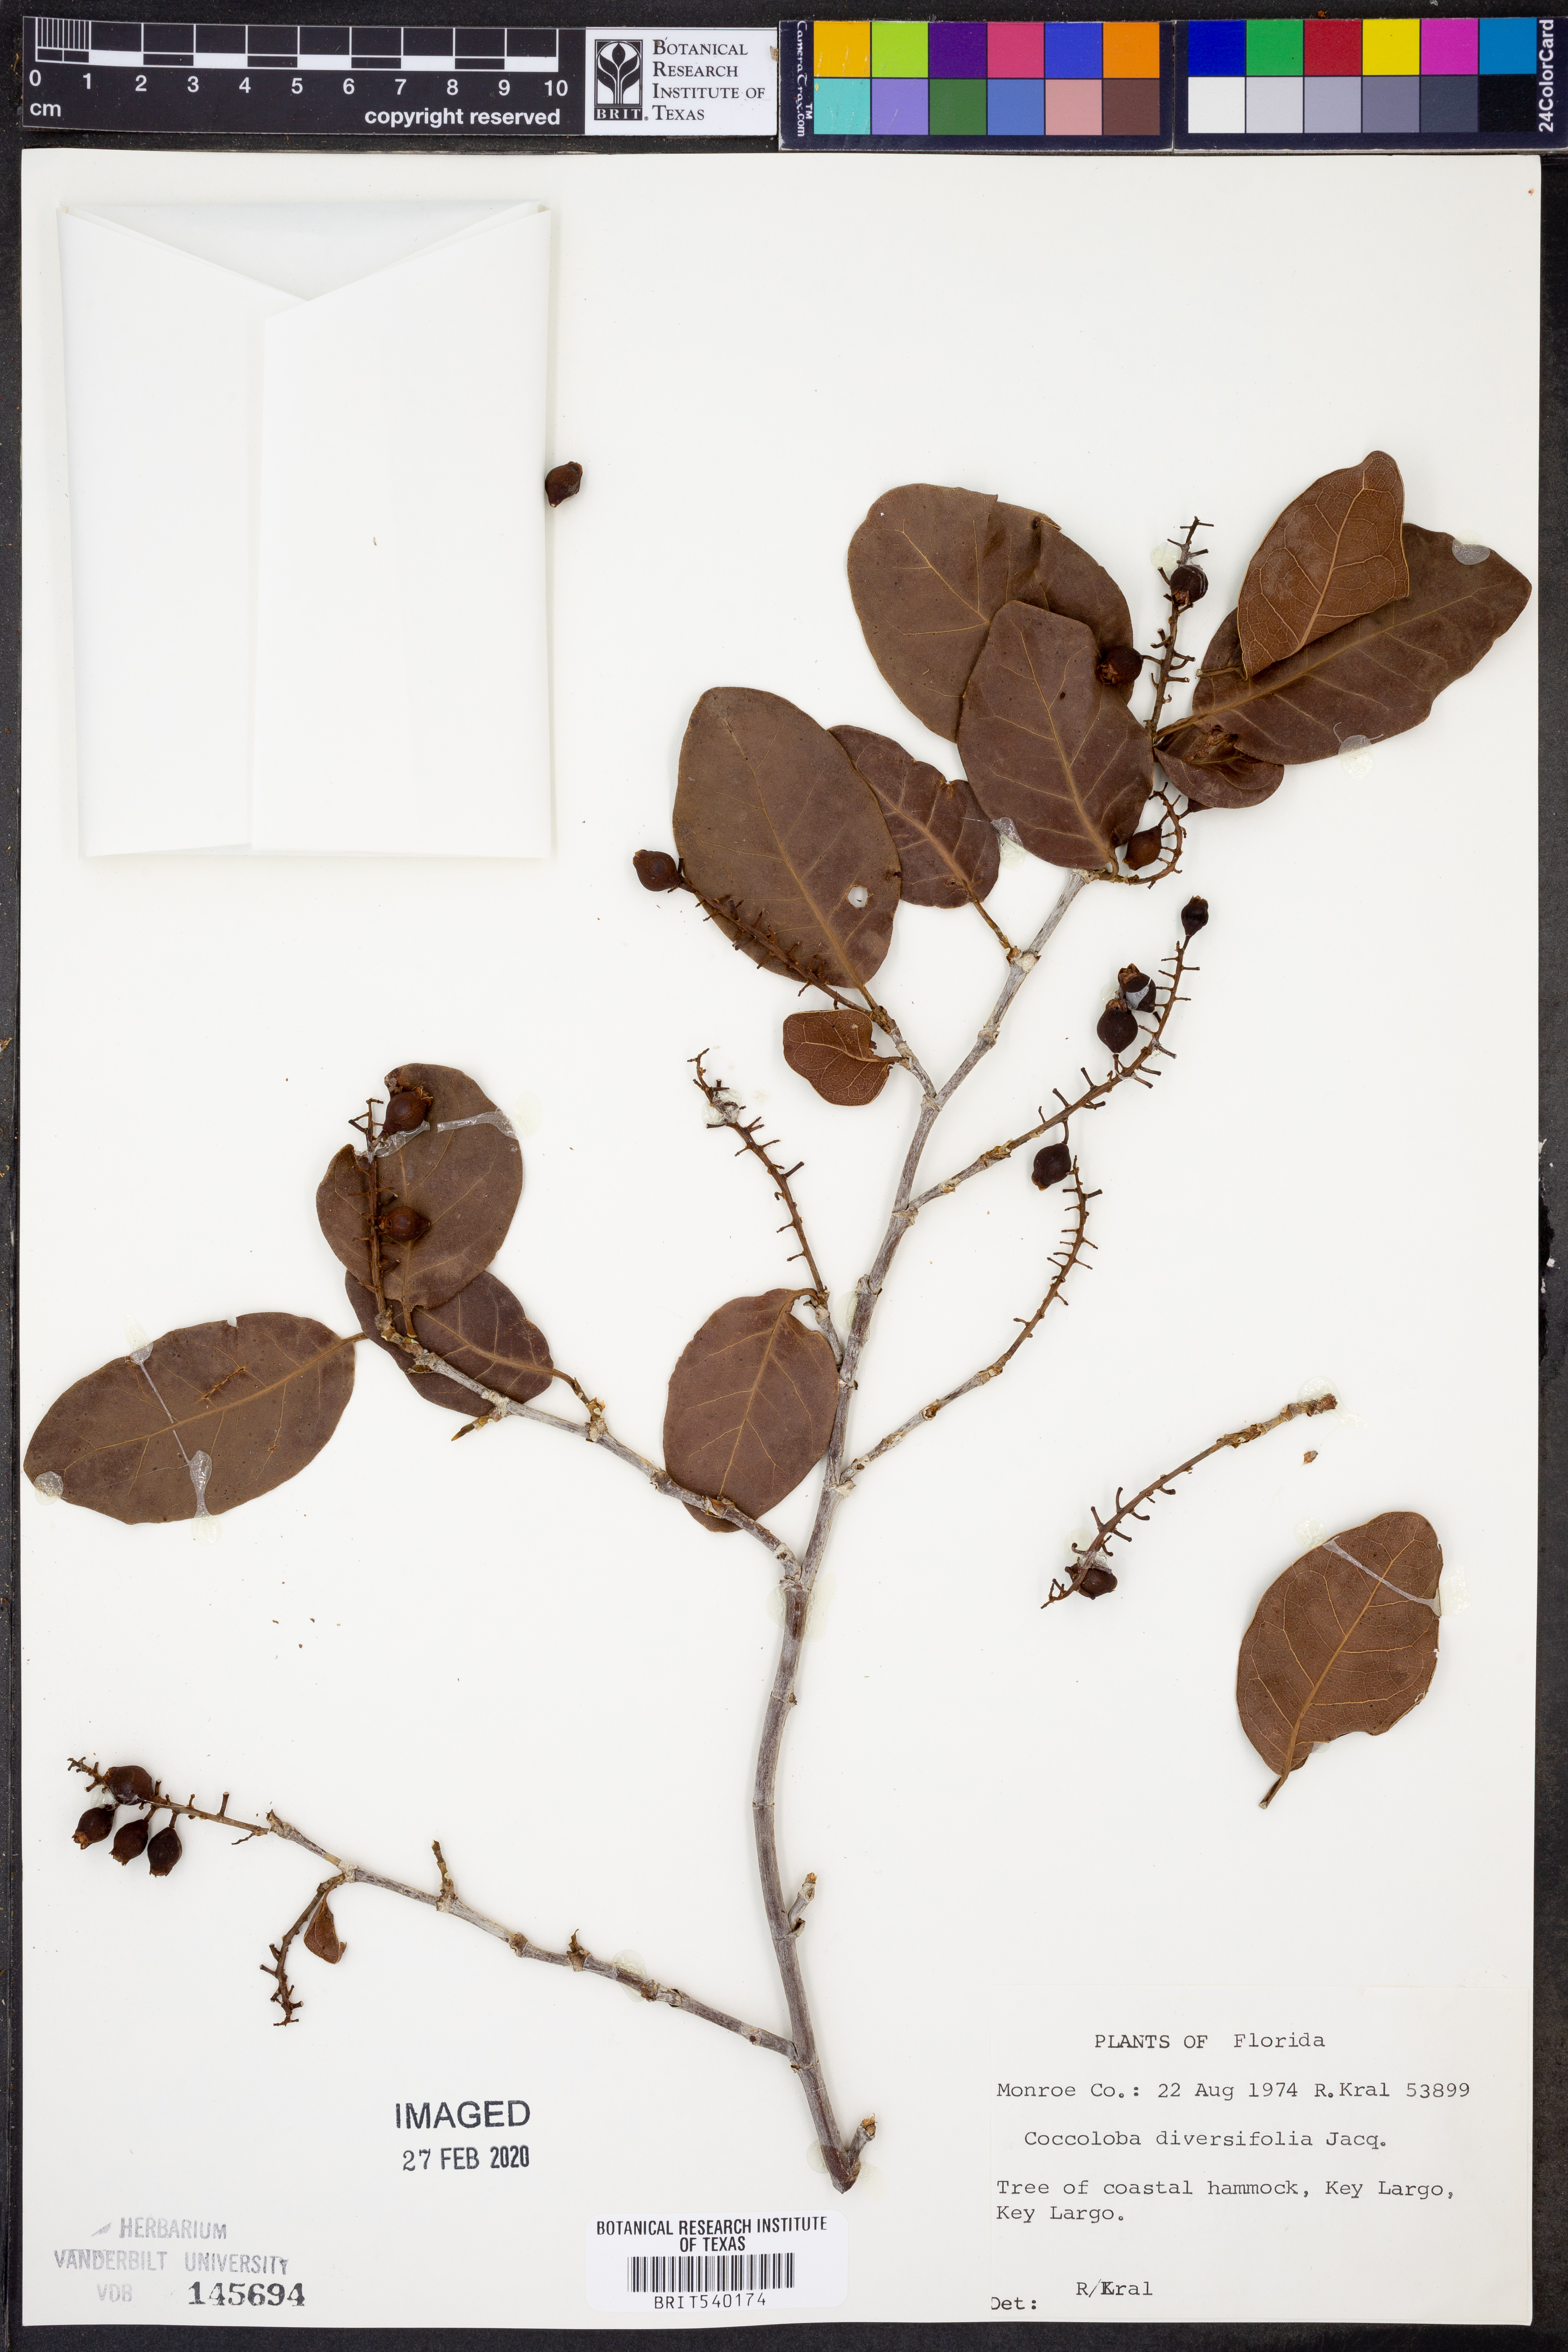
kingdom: Plantae
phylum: Tracheophyta
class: Magnoliopsida
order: Caryophyllales
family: Polygonaceae
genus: Coccoloba
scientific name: Coccoloba diversifolia
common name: Pigeon-plum
